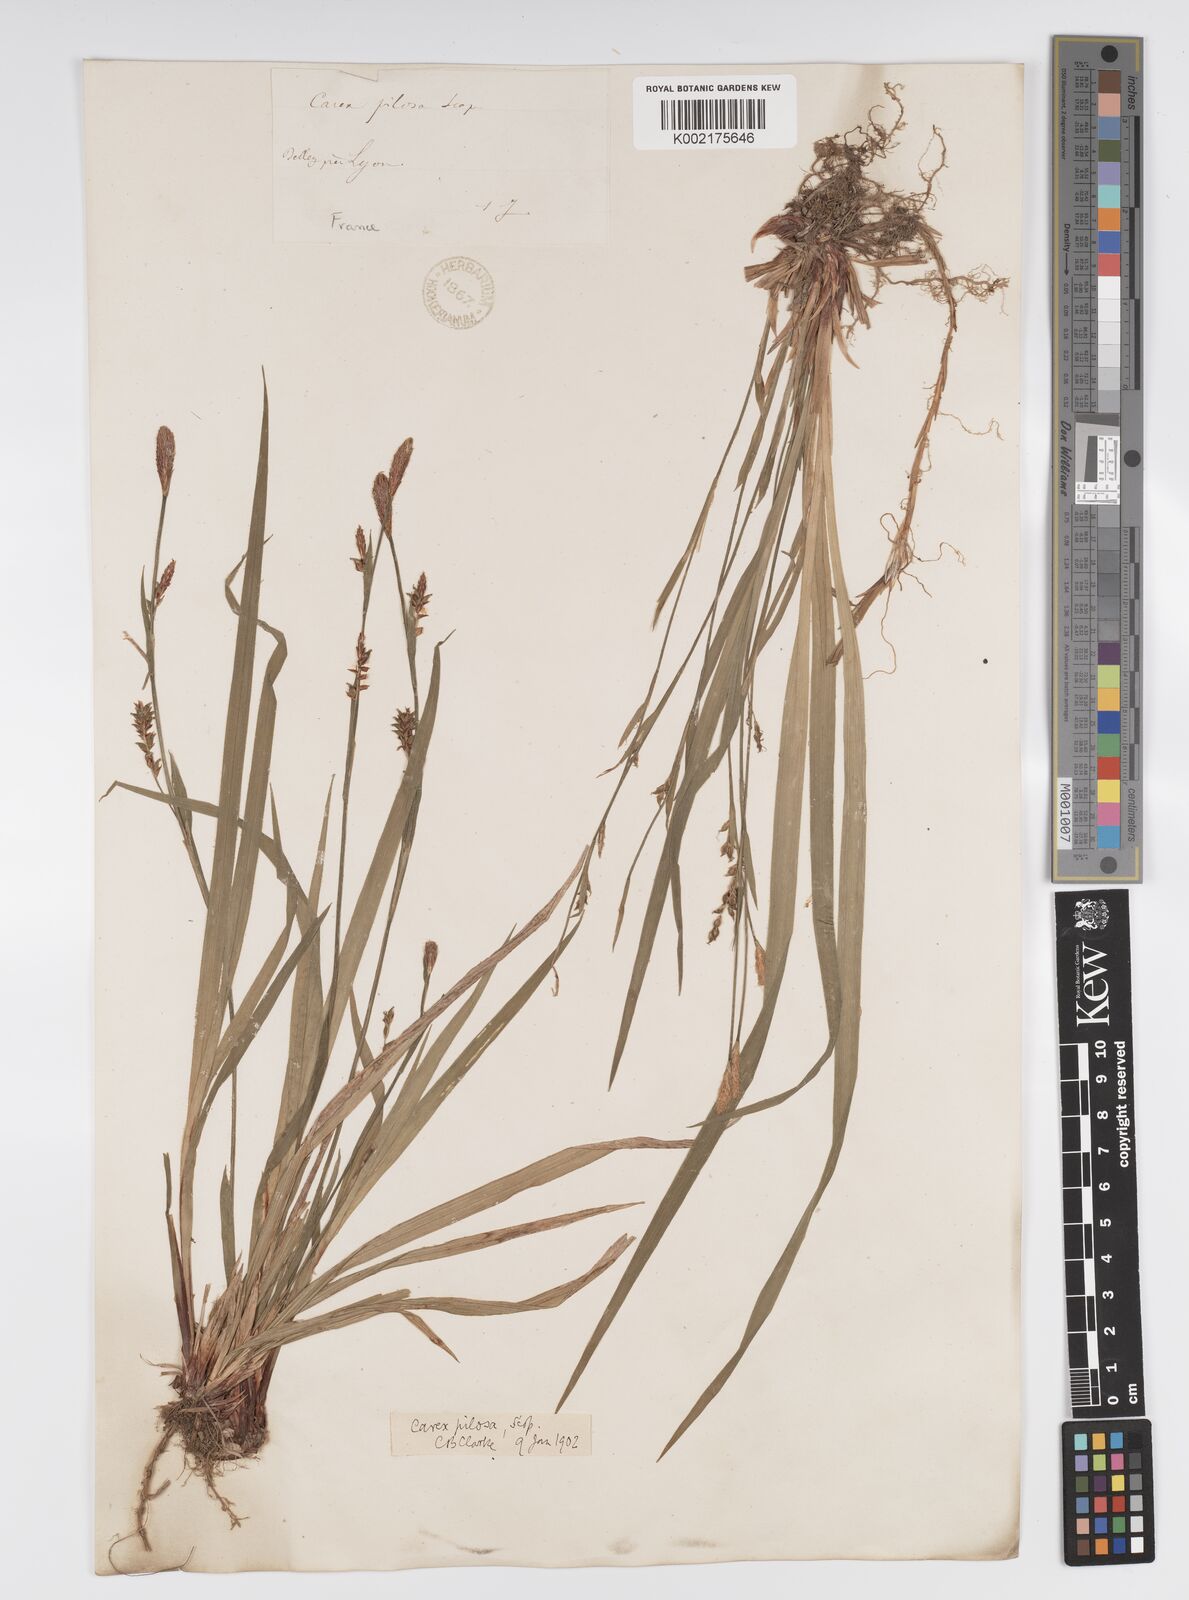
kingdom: Plantae
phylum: Tracheophyta
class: Liliopsida
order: Poales
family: Cyperaceae
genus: Carex
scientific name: Carex pilosa
